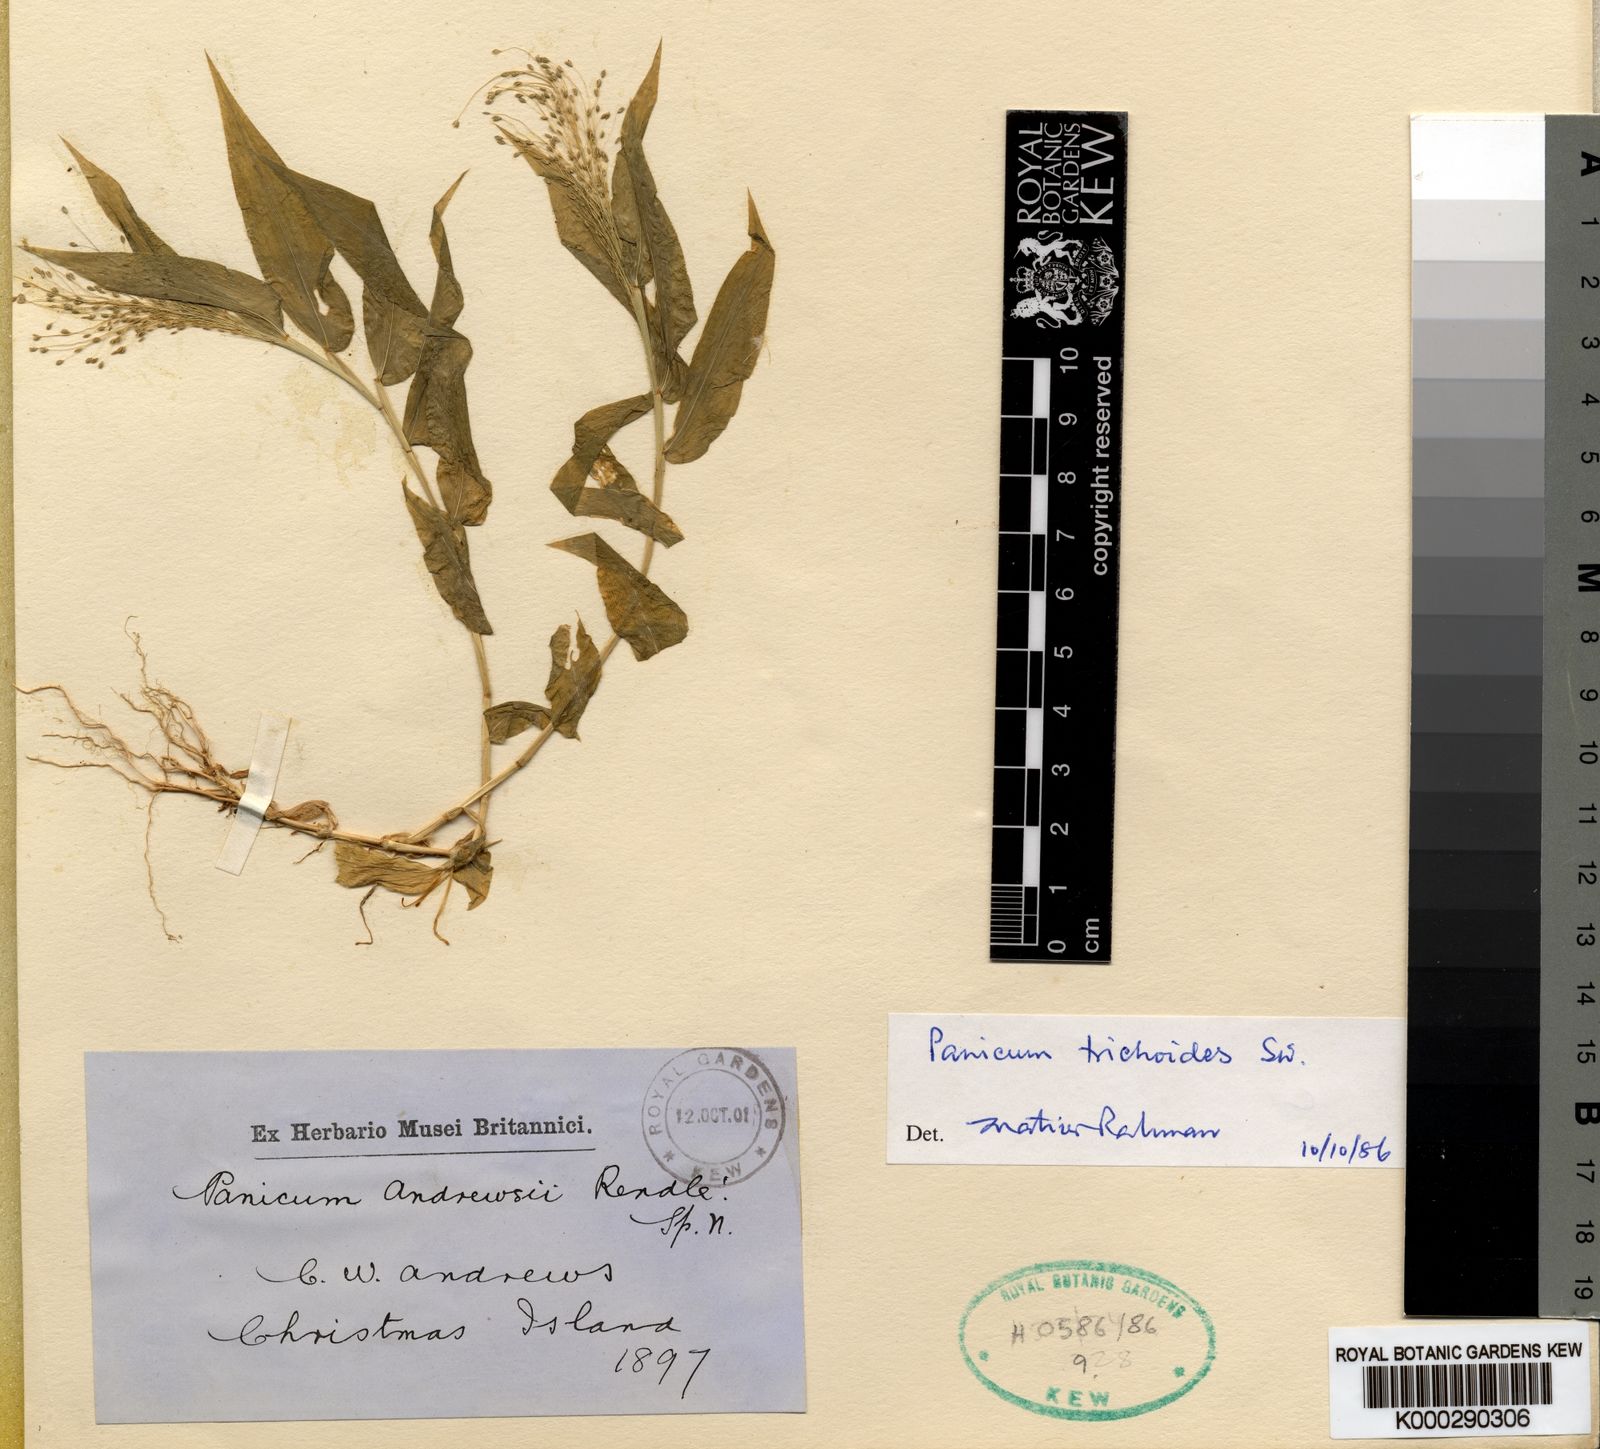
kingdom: Plantae
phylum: Tracheophyta
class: Liliopsida
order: Poales
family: Poaceae
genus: Panicum
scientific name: Panicum trichoides
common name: Tickle grass
